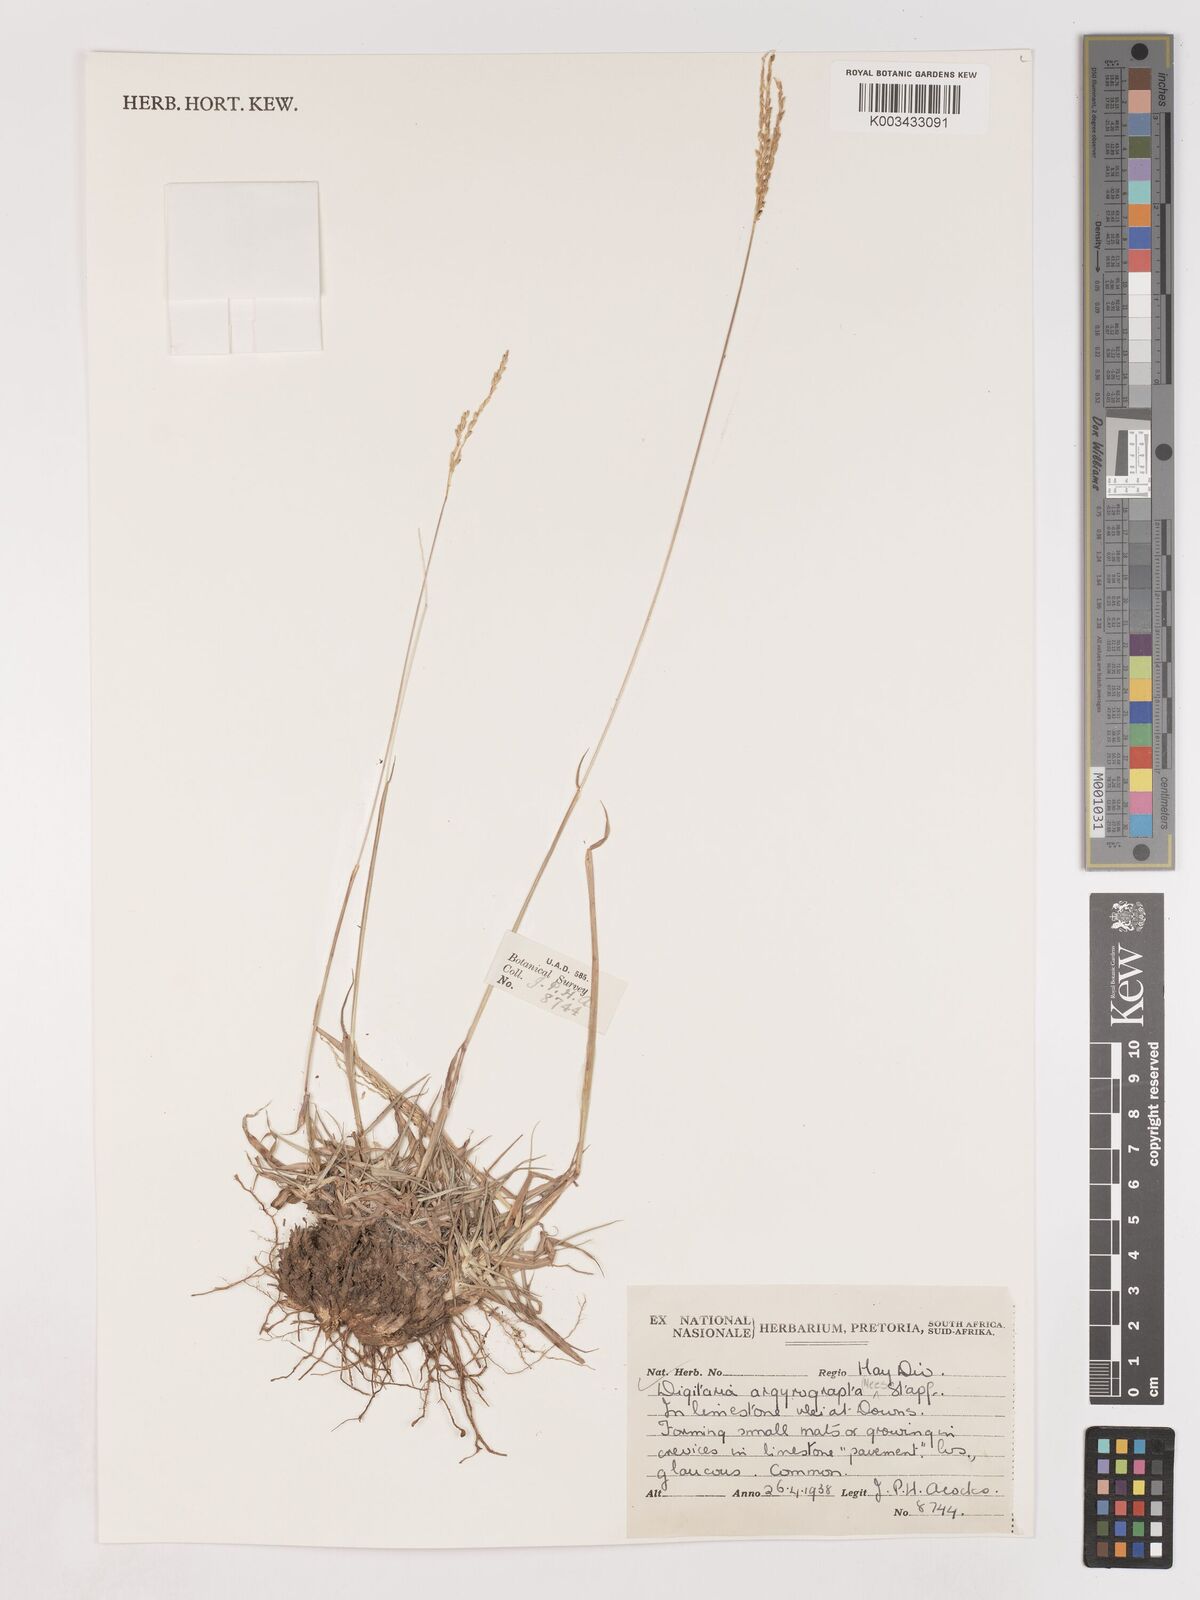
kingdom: Plantae
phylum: Tracheophyta
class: Liliopsida
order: Poales
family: Poaceae
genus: Digitaria
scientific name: Digitaria argyrograpta
